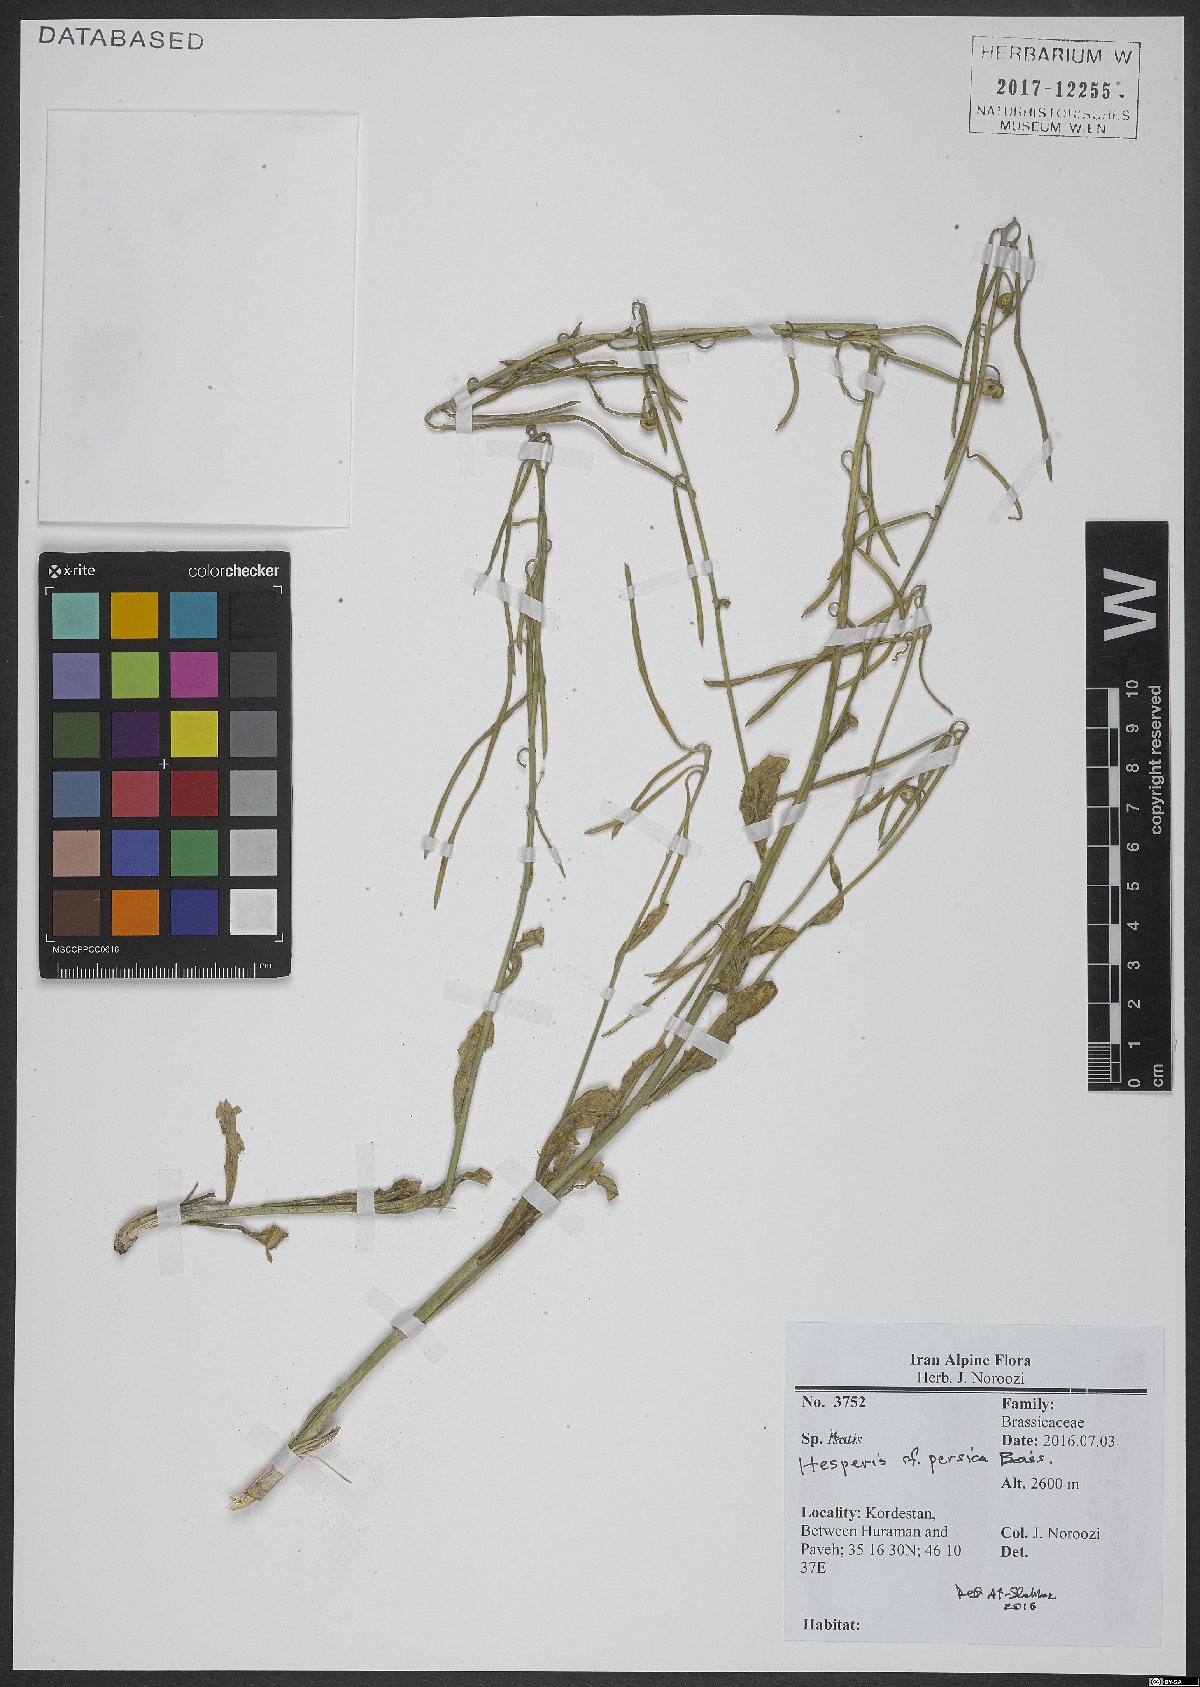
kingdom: Plantae
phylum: Tracheophyta
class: Magnoliopsida
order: Brassicales
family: Brassicaceae
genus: Hesperis
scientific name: Hesperis persica
